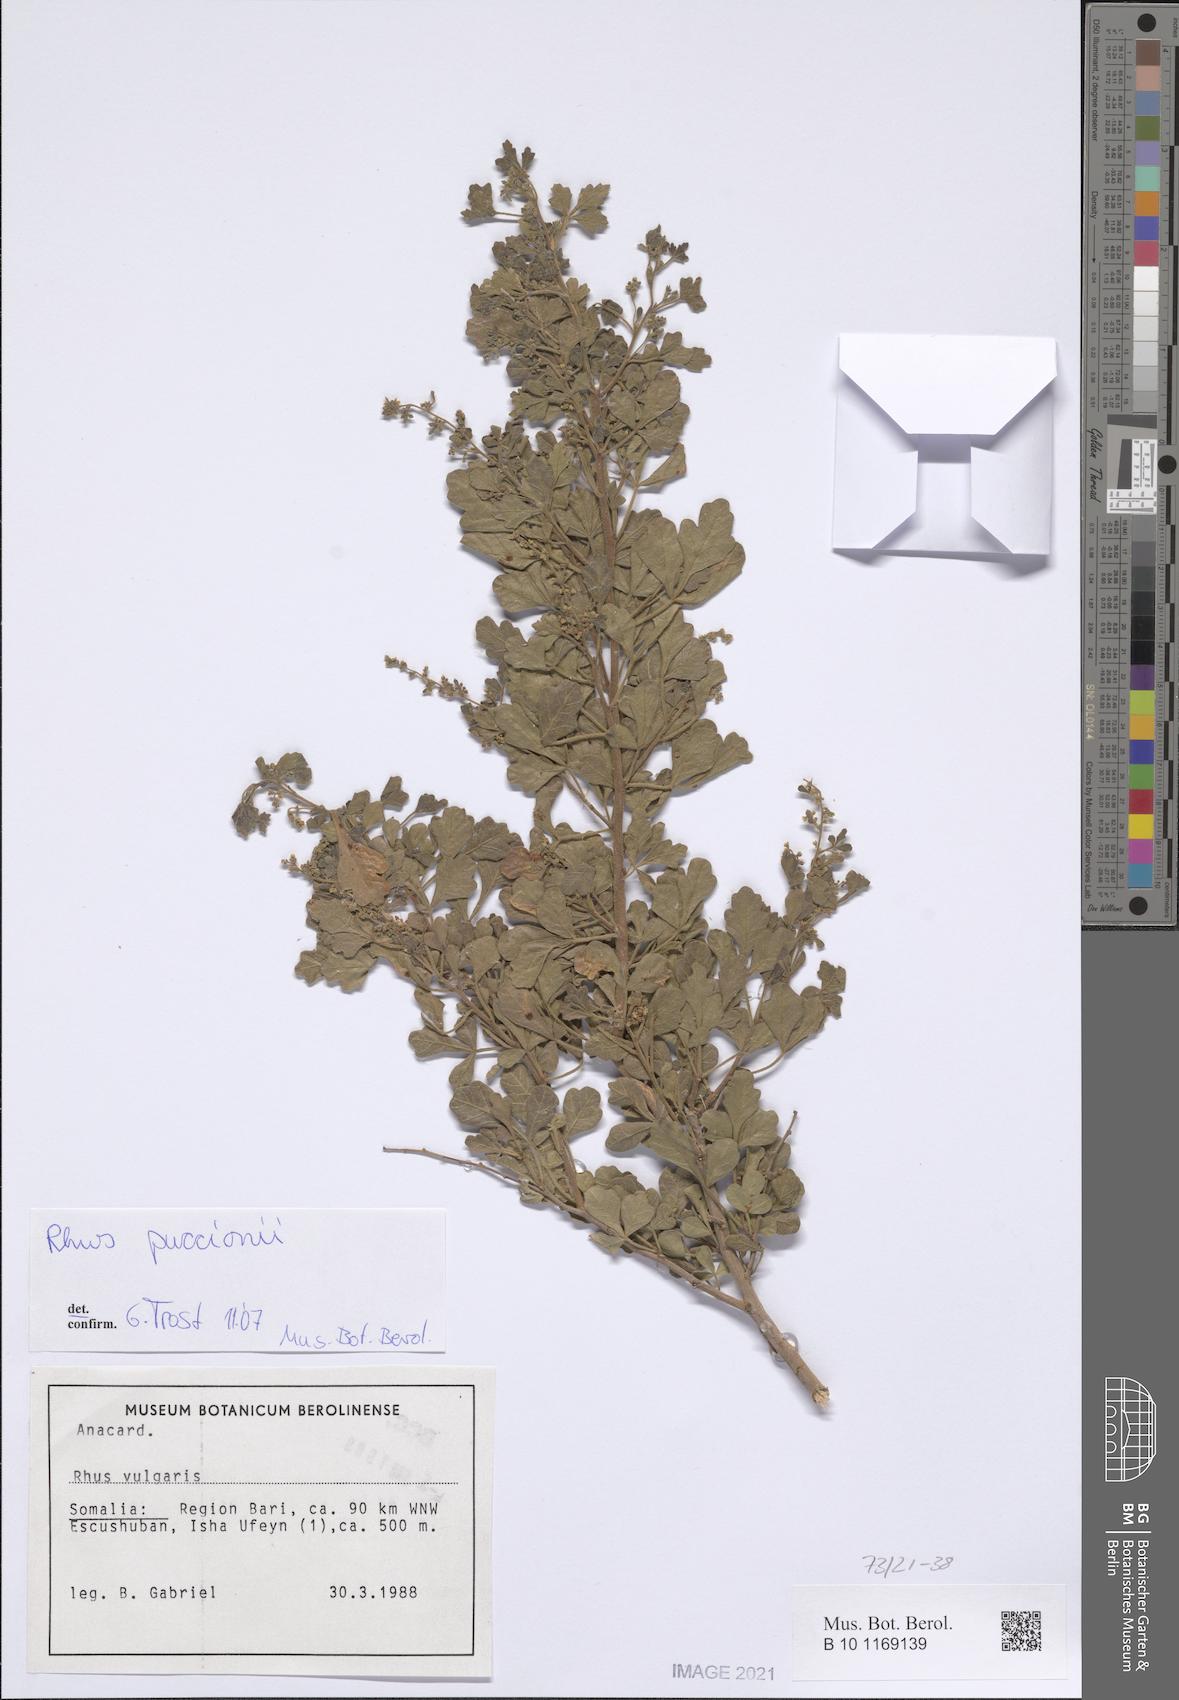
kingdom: Plantae
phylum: Tracheophyta
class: Magnoliopsida
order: Sapindales
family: Anacardiaceae
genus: Searsia
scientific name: Searsia puccionii
